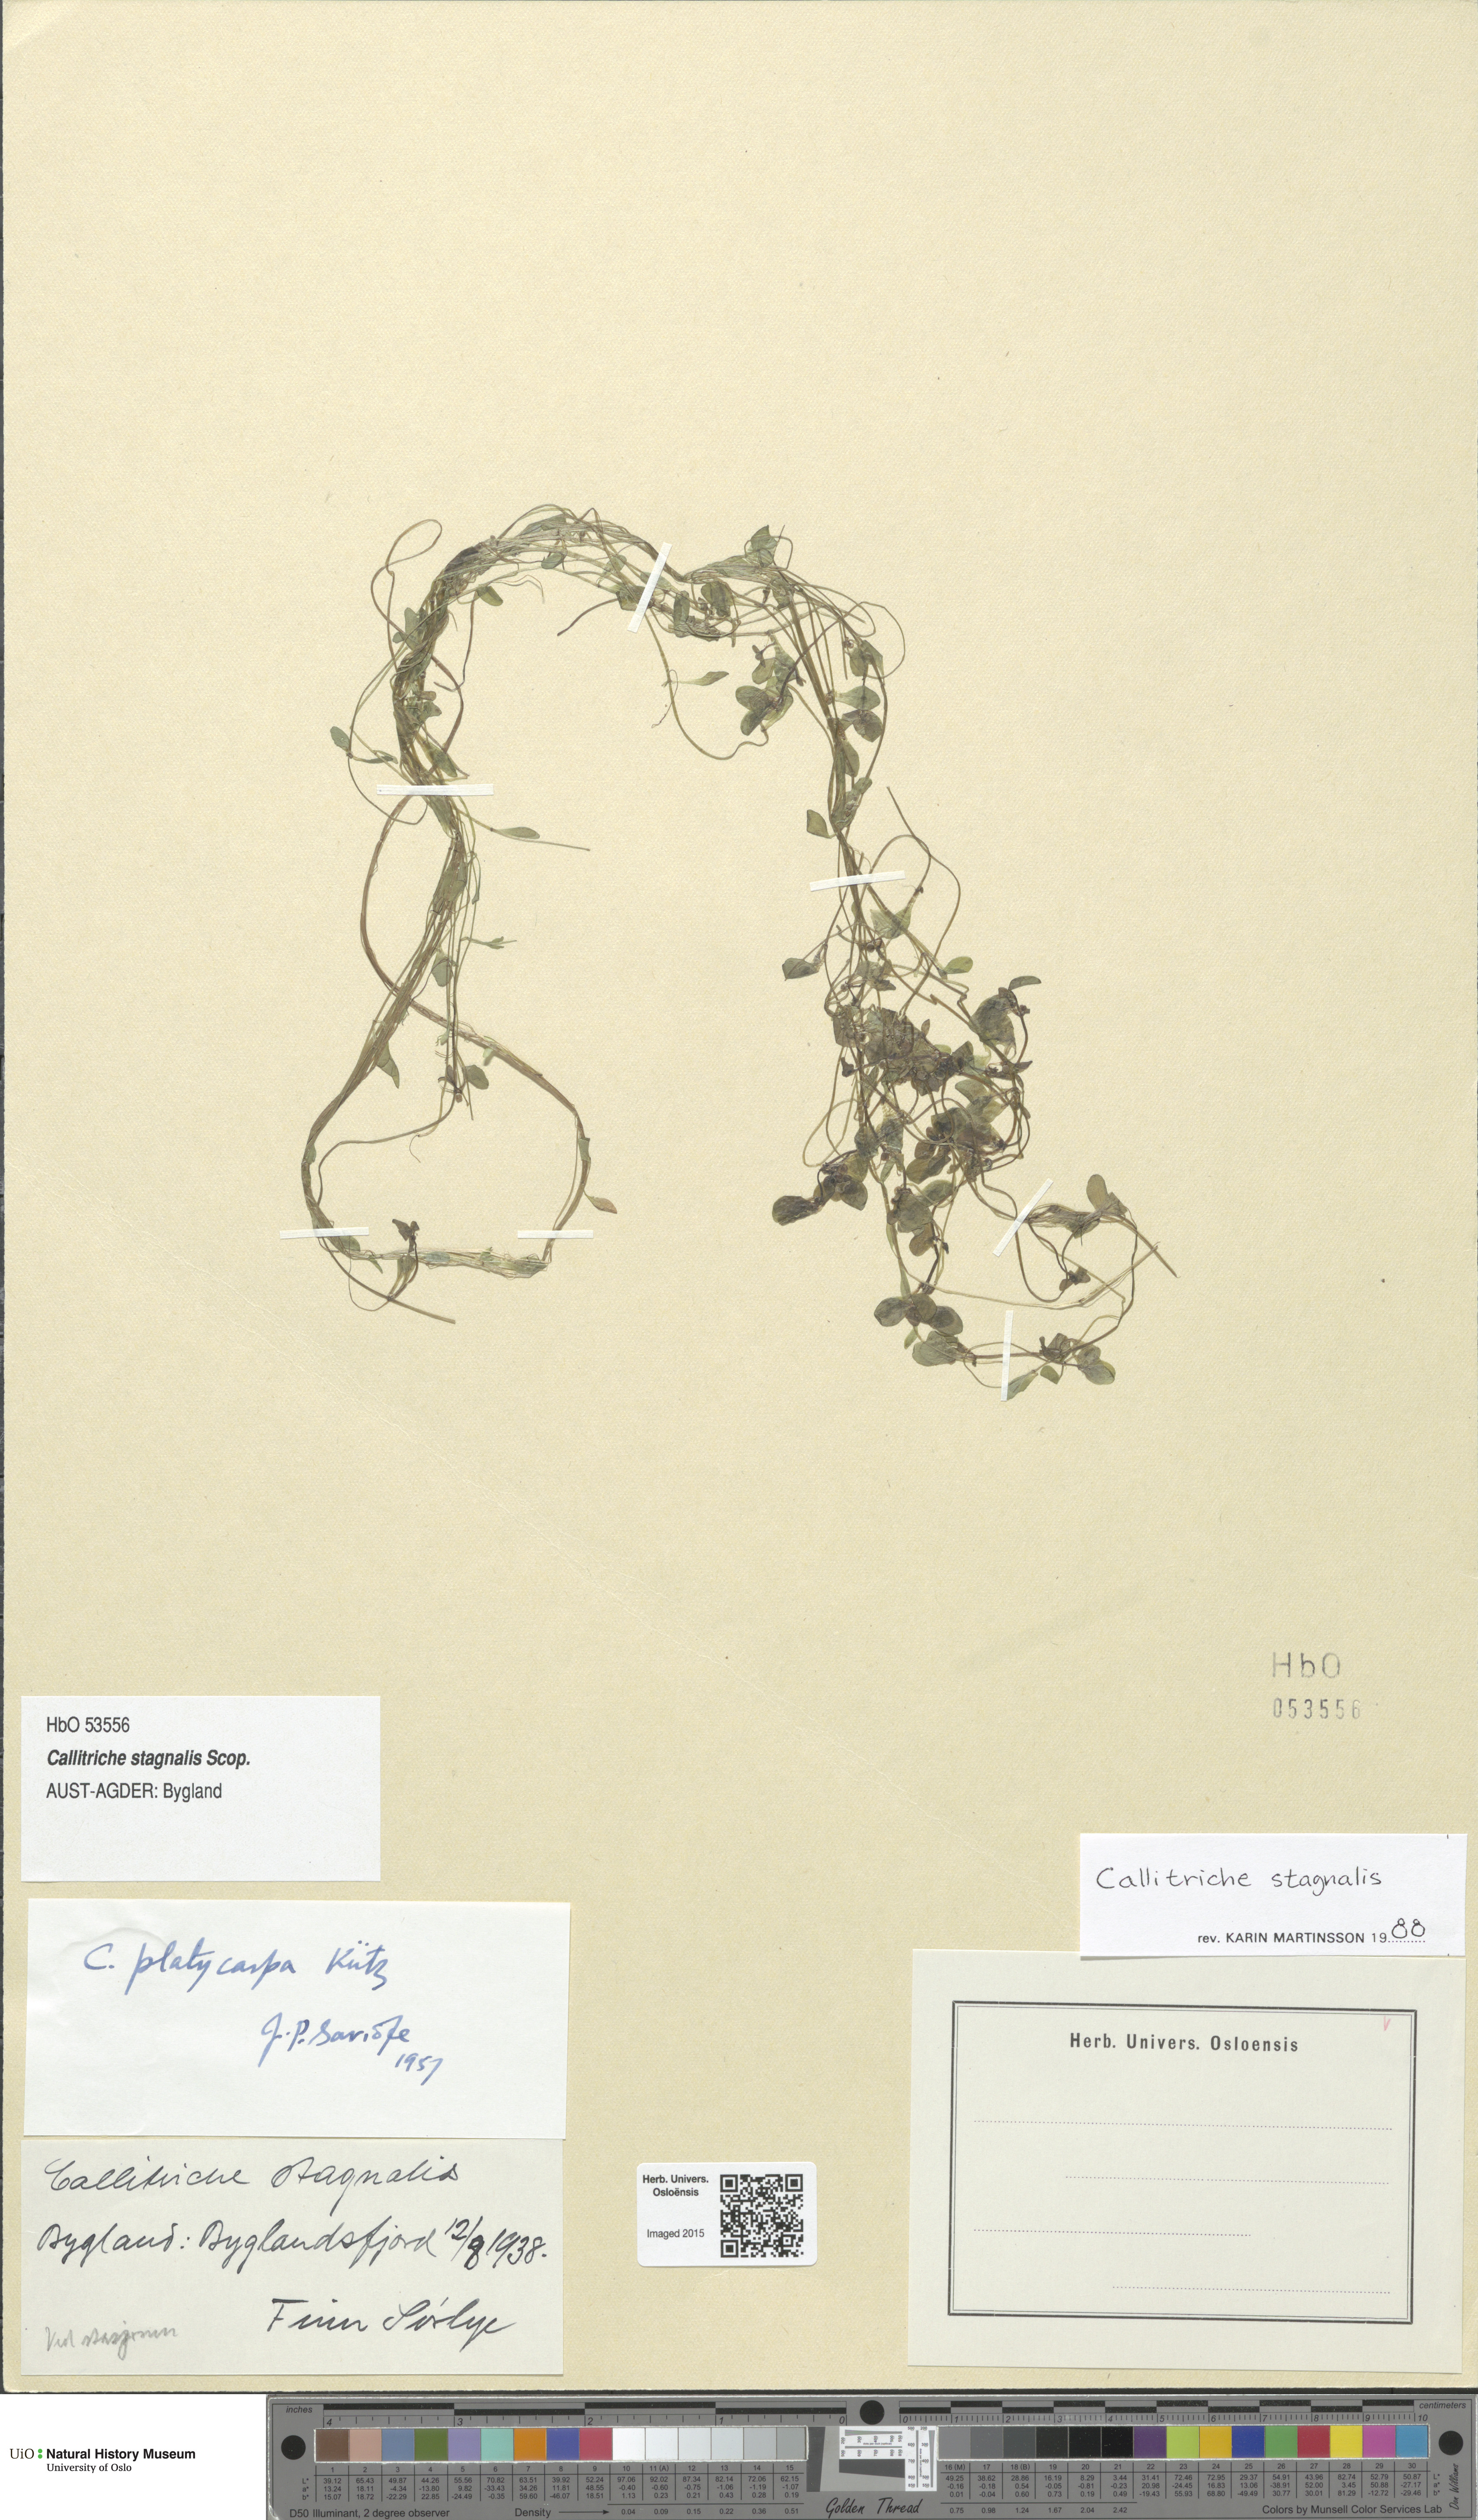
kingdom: Plantae
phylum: Tracheophyta
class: Magnoliopsida
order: Lamiales
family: Plantaginaceae
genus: Callitriche
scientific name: Callitriche stagnalis
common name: Common water-starwort
